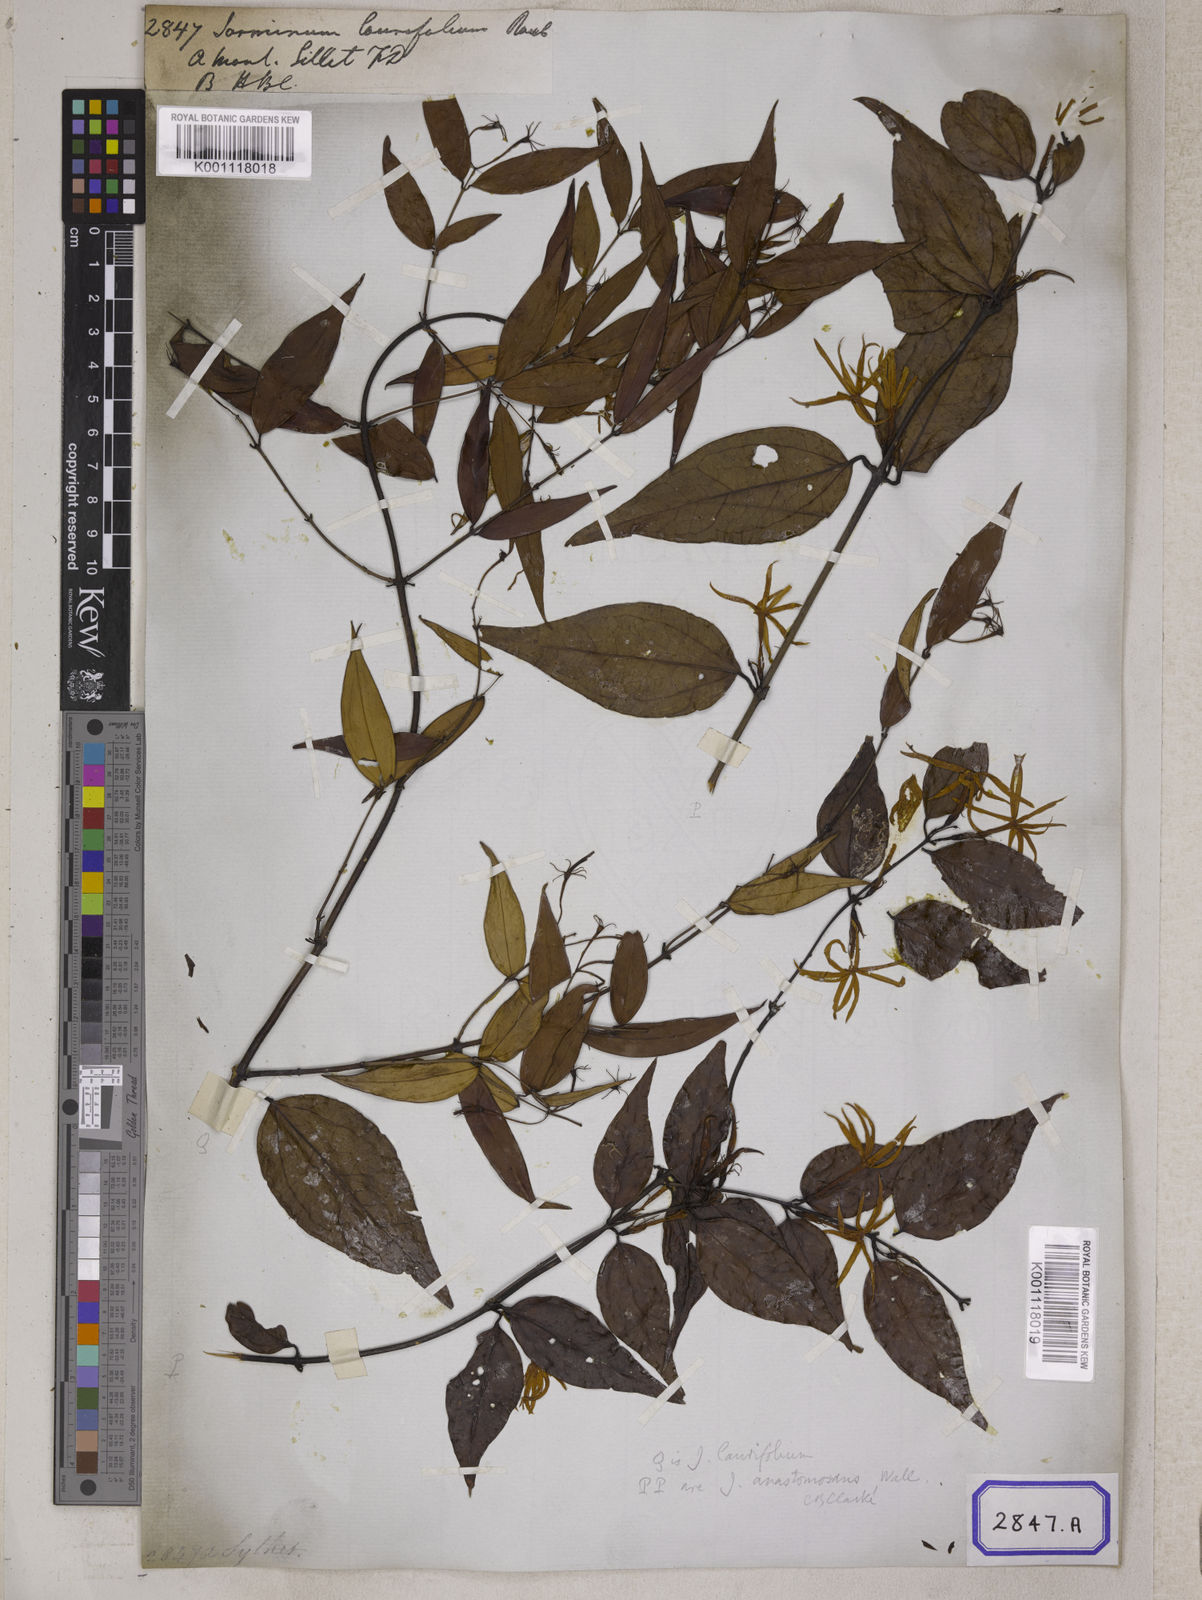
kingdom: Plantae
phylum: Tracheophyta
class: Magnoliopsida
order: Lamiales
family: Oleaceae
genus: Jasminum
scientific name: Jasminum
